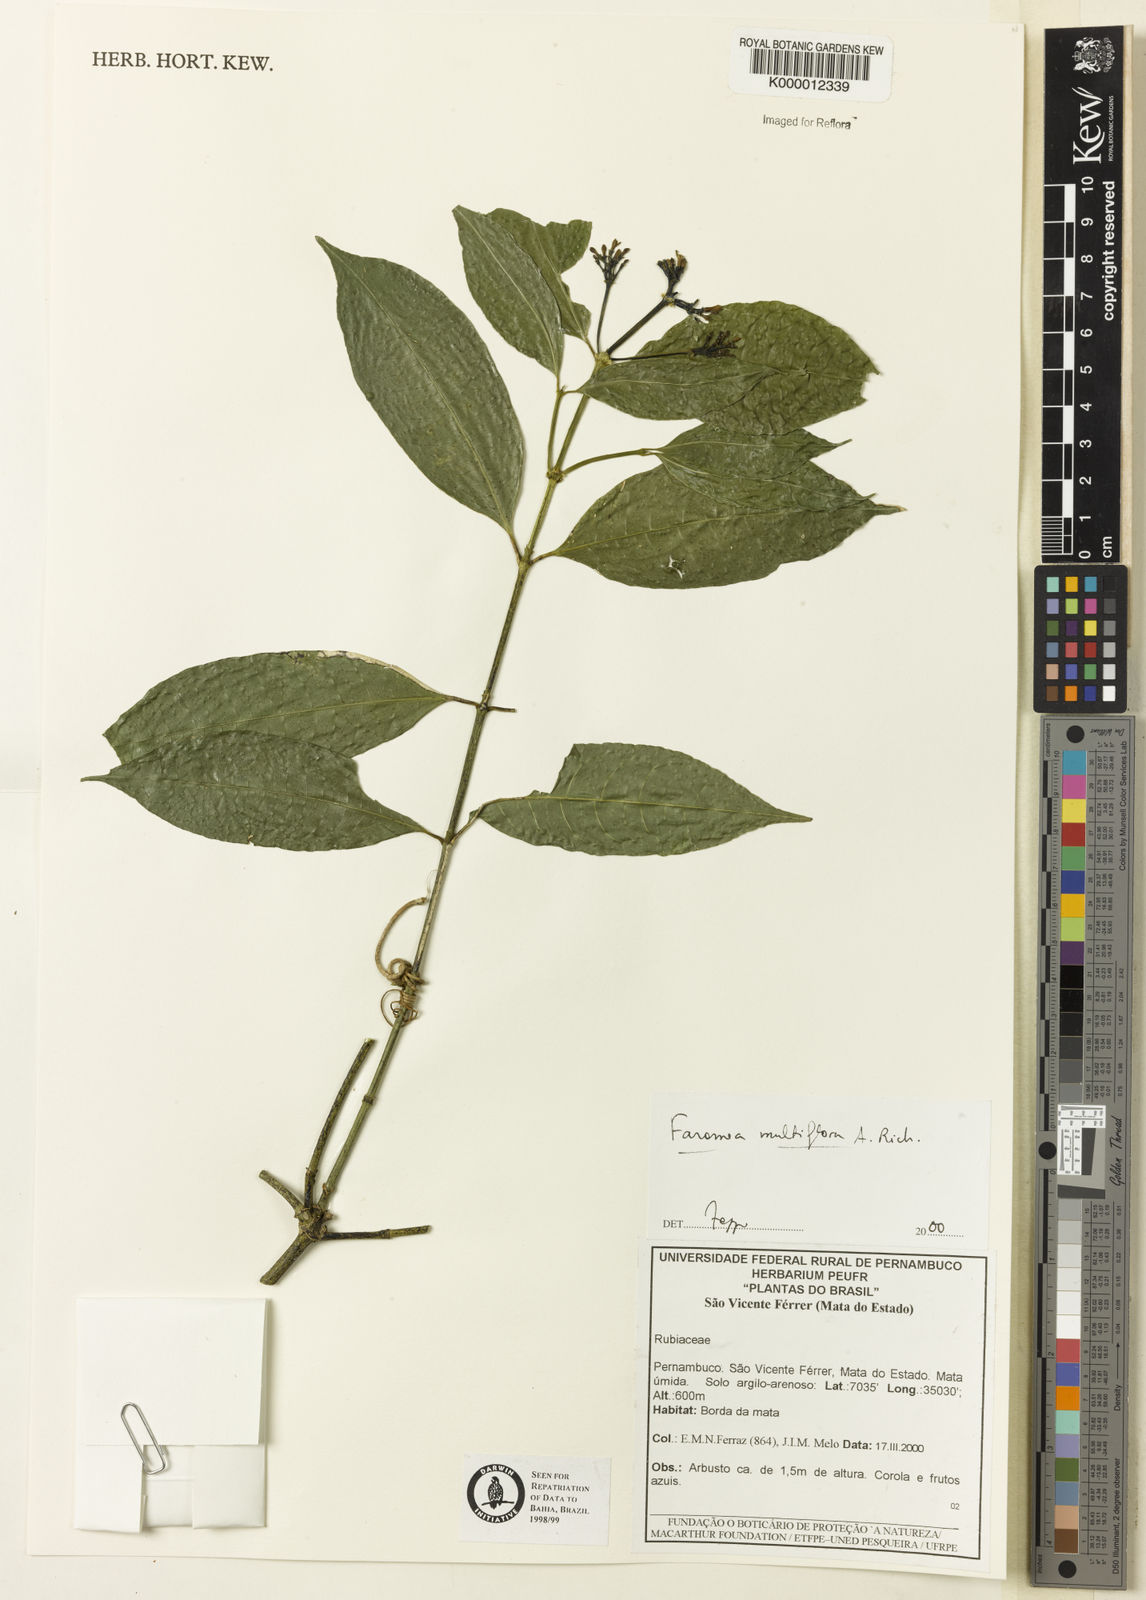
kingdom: Plantae
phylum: Tracheophyta
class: Magnoliopsida
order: Gentianales
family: Rubiaceae
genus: Faramea
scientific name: Faramea multiflora
